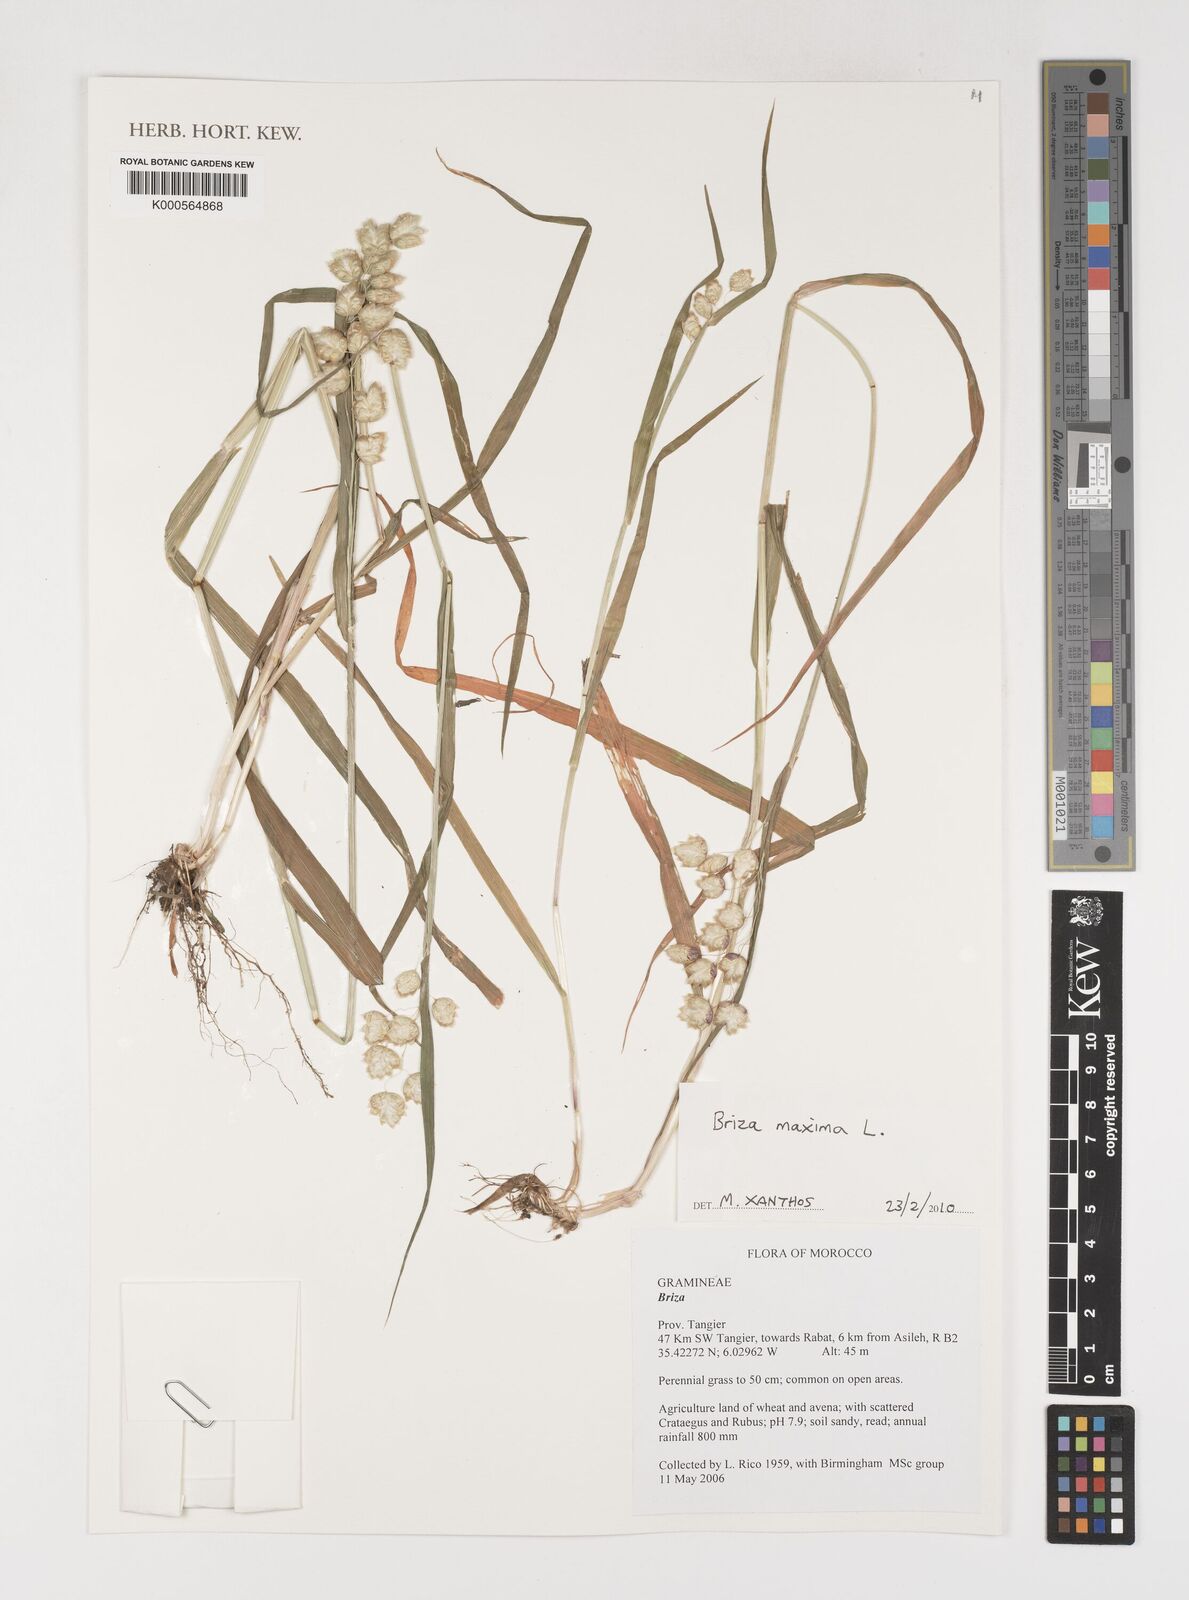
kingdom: Plantae
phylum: Tracheophyta
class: Liliopsida
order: Poales
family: Poaceae
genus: Briza
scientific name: Briza maxima
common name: Big quakinggrass
